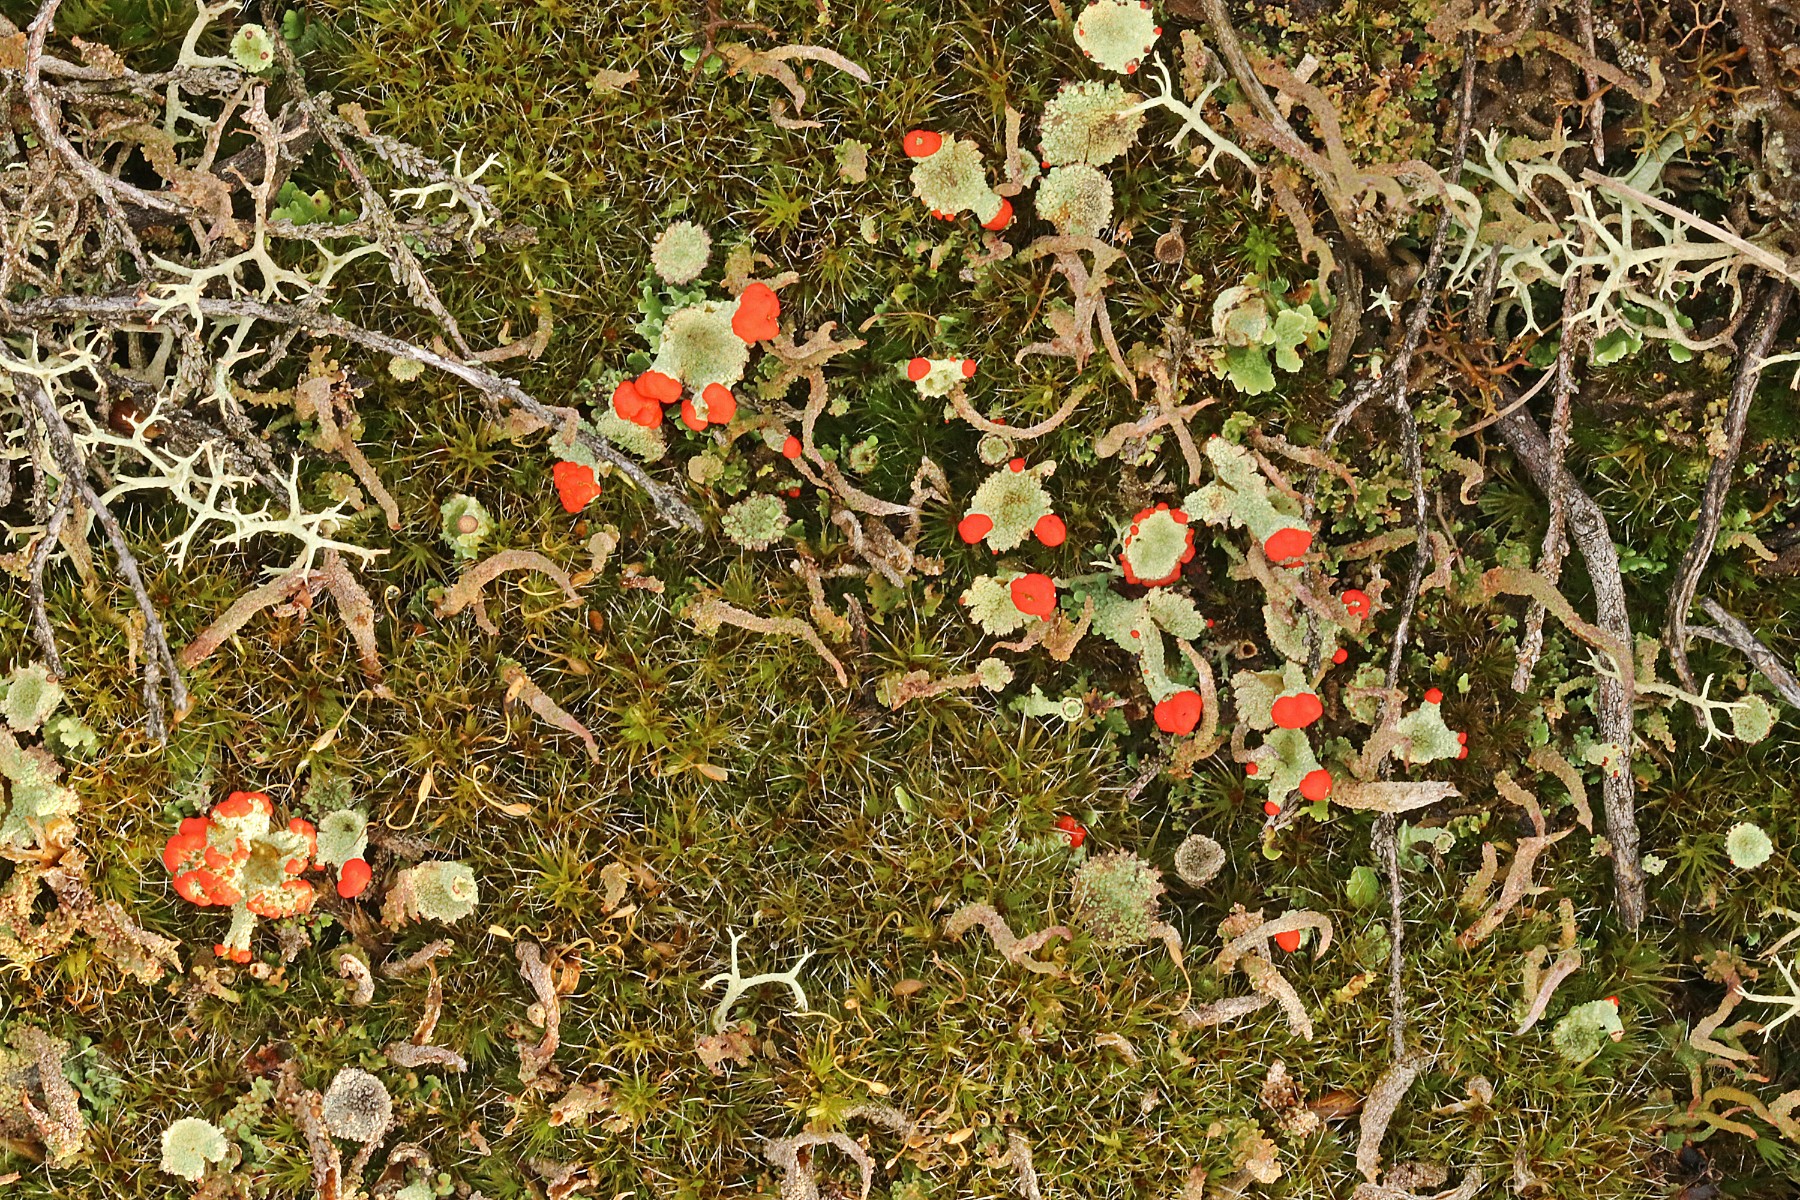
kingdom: Fungi
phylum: Ascomycota
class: Lecanoromycetes
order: Lecanorales
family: Cladoniaceae
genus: Cladonia
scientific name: Cladonia diversa
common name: rød bægerlav
